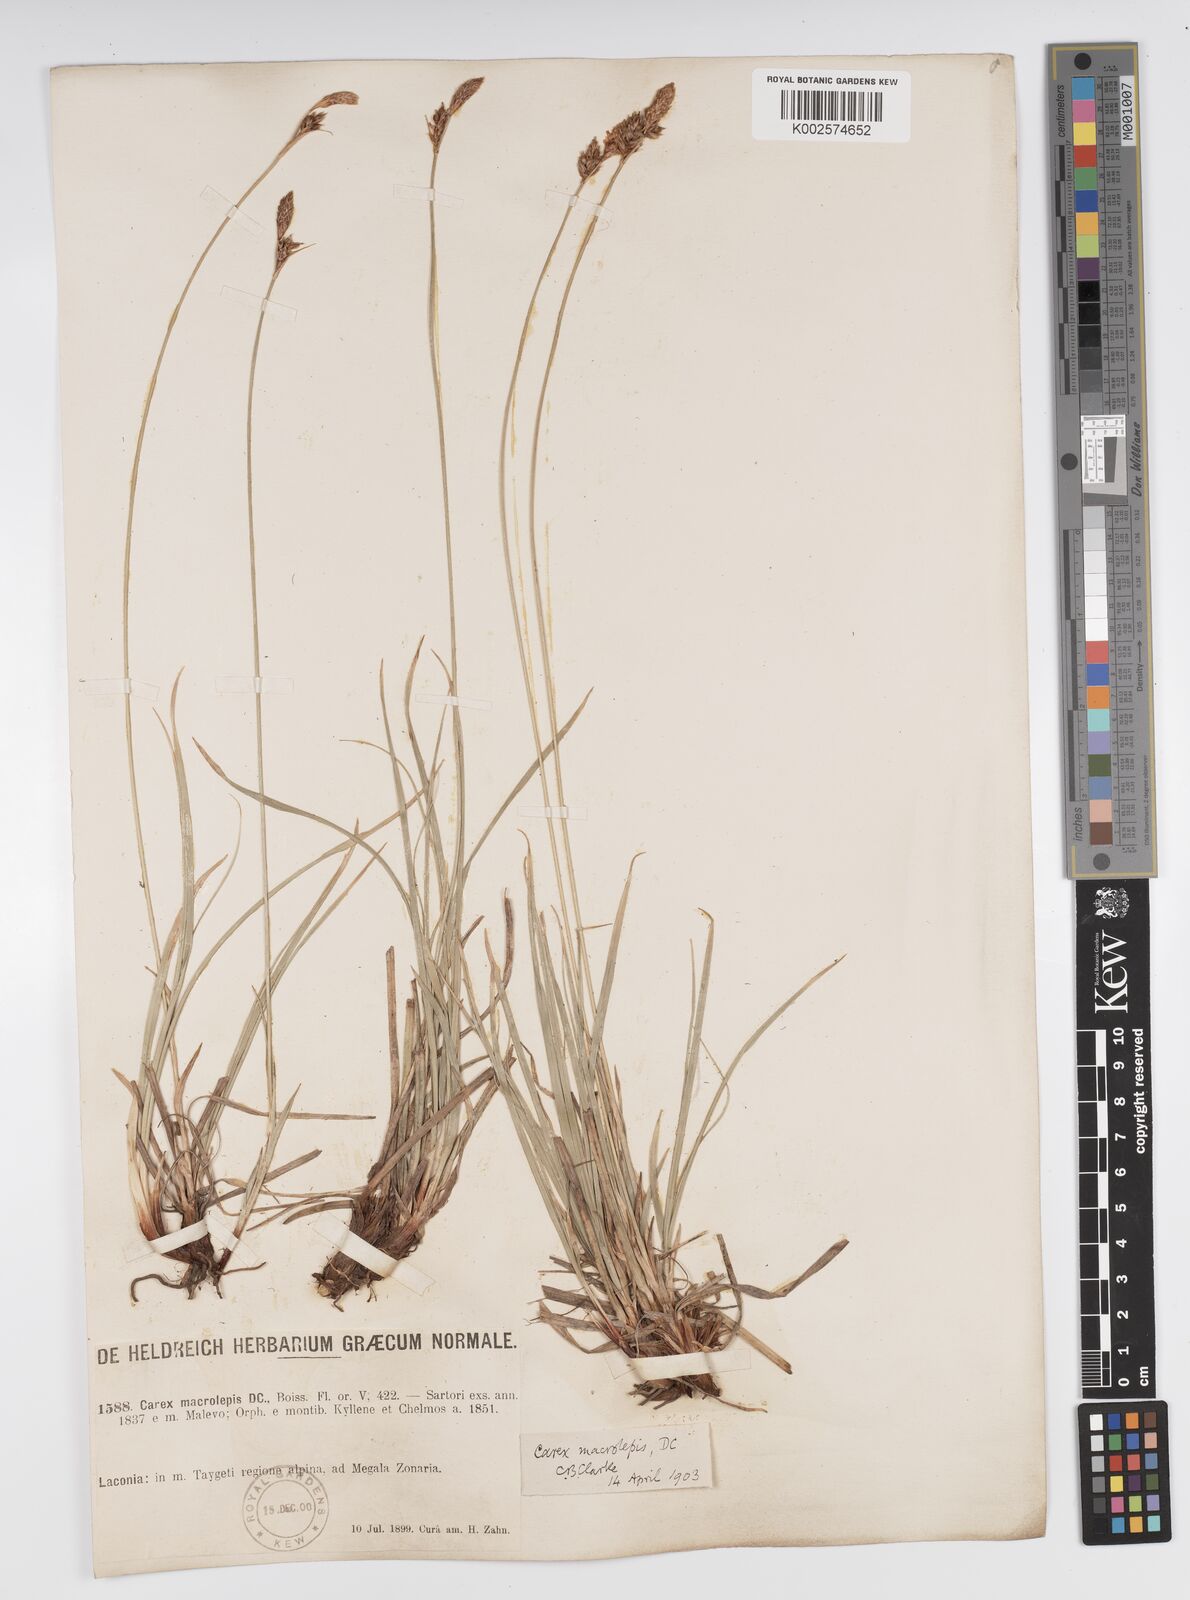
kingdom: Plantae
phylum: Tracheophyta
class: Liliopsida
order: Poales
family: Cyperaceae
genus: Carex
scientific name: Carex macrolepis
